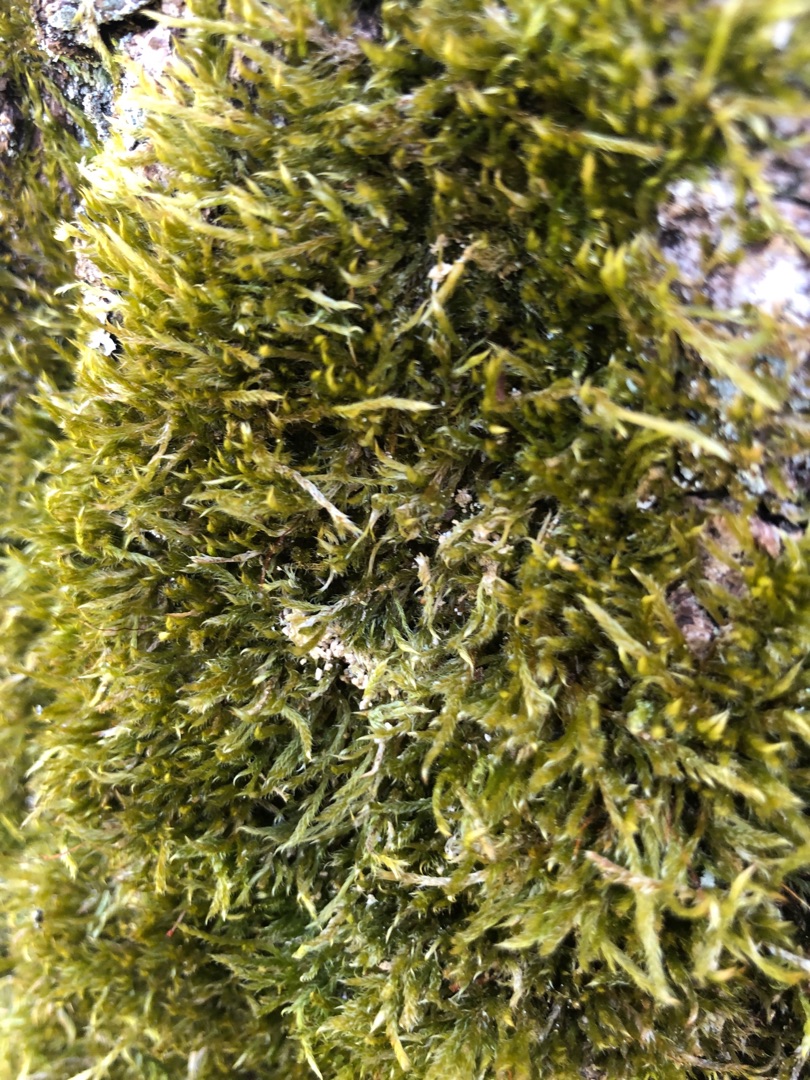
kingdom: Plantae
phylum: Bryophyta
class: Bryopsida
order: Hypnales
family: Hypnaceae
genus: Hypnum
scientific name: Hypnum cupressiforme
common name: Almindelig cypresmos
